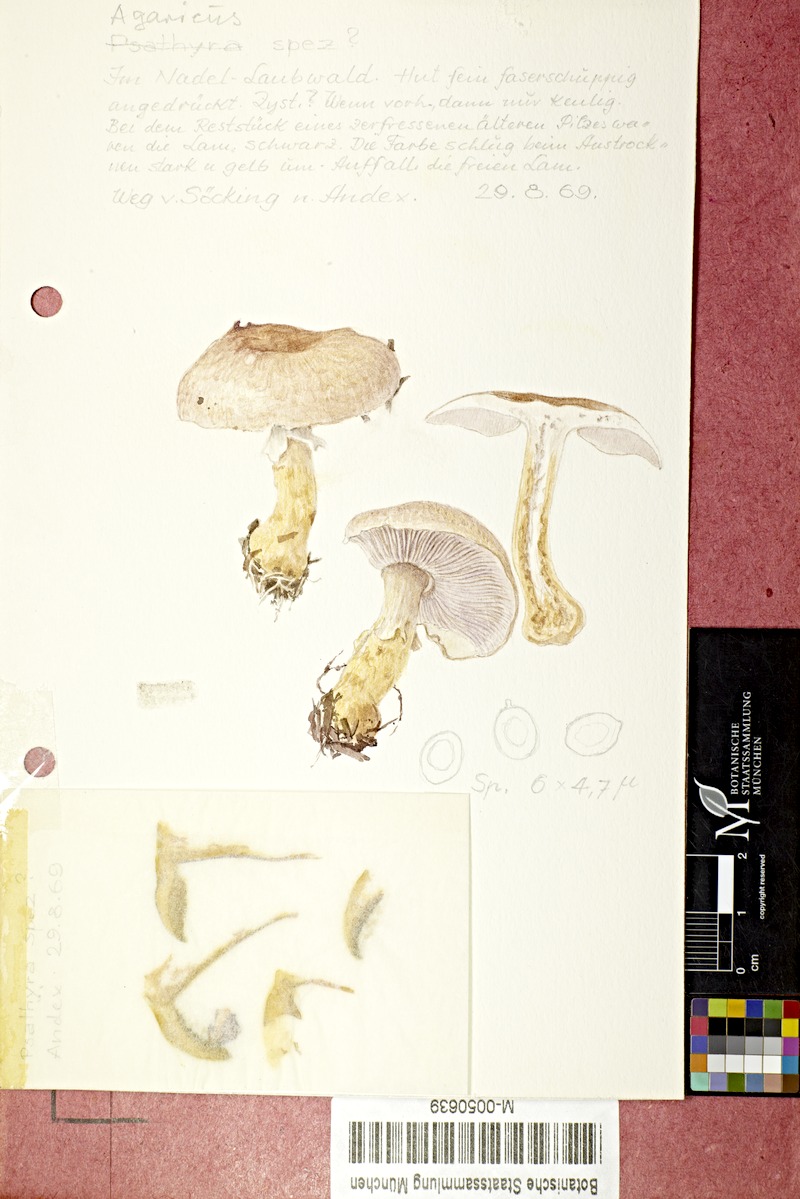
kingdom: Fungi
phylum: Basidiomycota
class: Agaricomycetes
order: Agaricales
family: Agaricaceae
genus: Agaricus
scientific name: Agaricus
